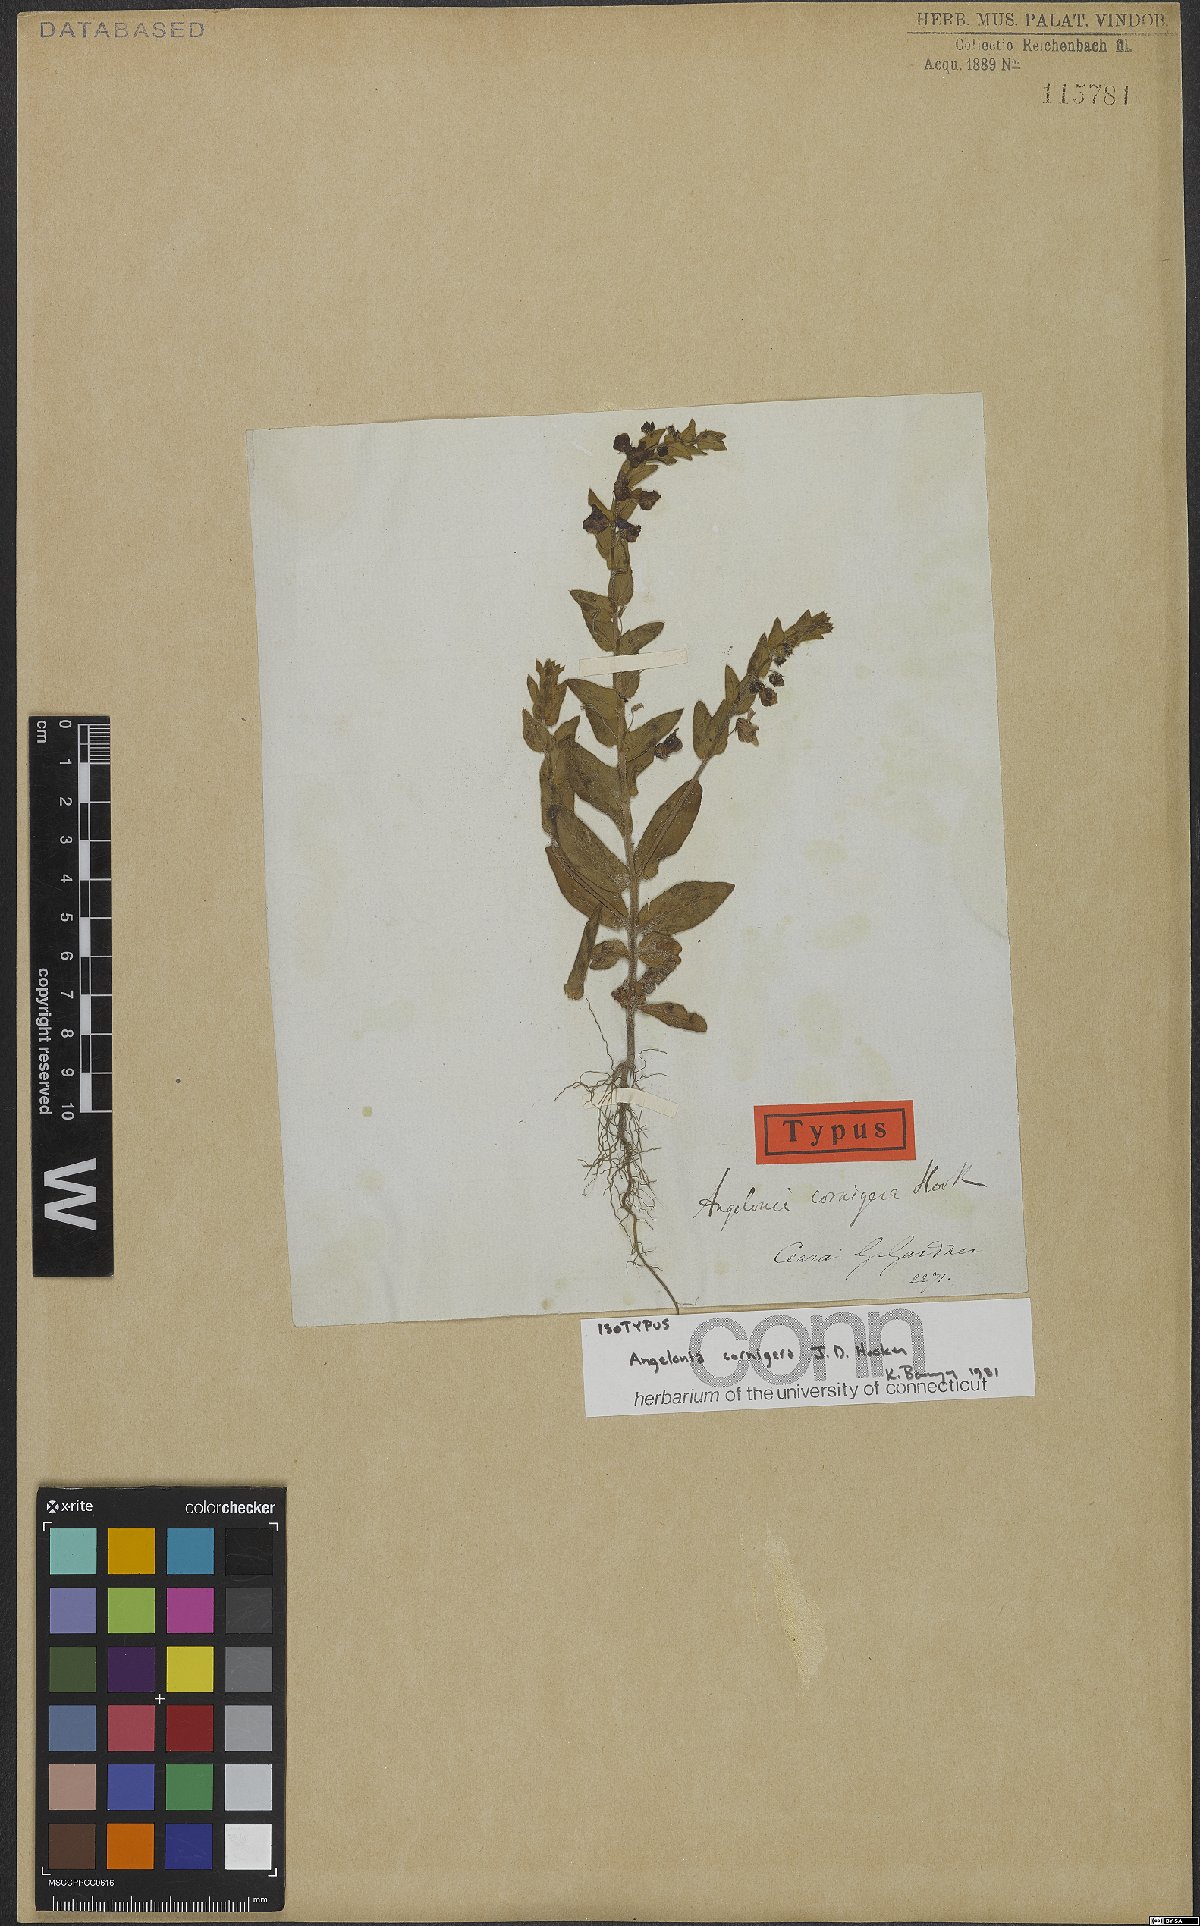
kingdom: Plantae
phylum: Tracheophyta
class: Magnoliopsida
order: Lamiales
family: Plantaginaceae
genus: Angelonia
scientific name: Angelonia cornigera
